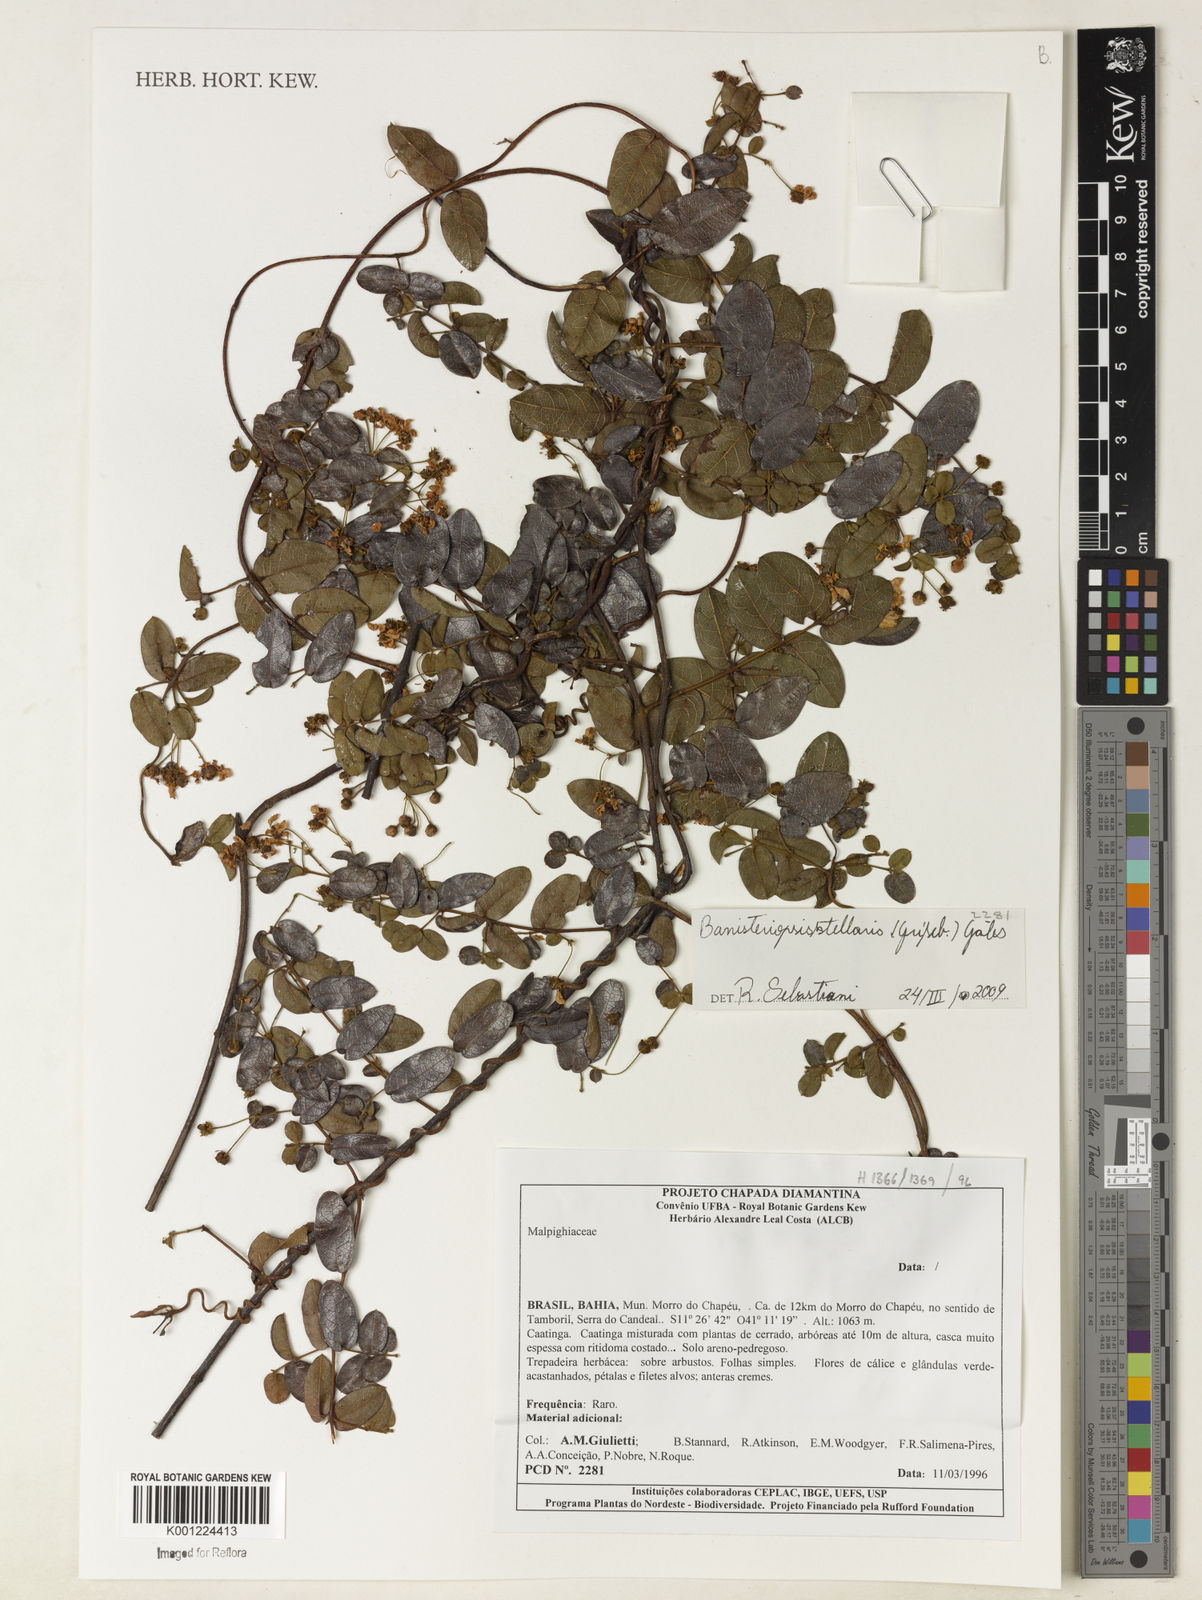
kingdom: Plantae
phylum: Tracheophyta
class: Magnoliopsida
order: Malpighiales
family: Malpighiaceae
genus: Banisteriopsis
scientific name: Banisteriopsis stellaris
